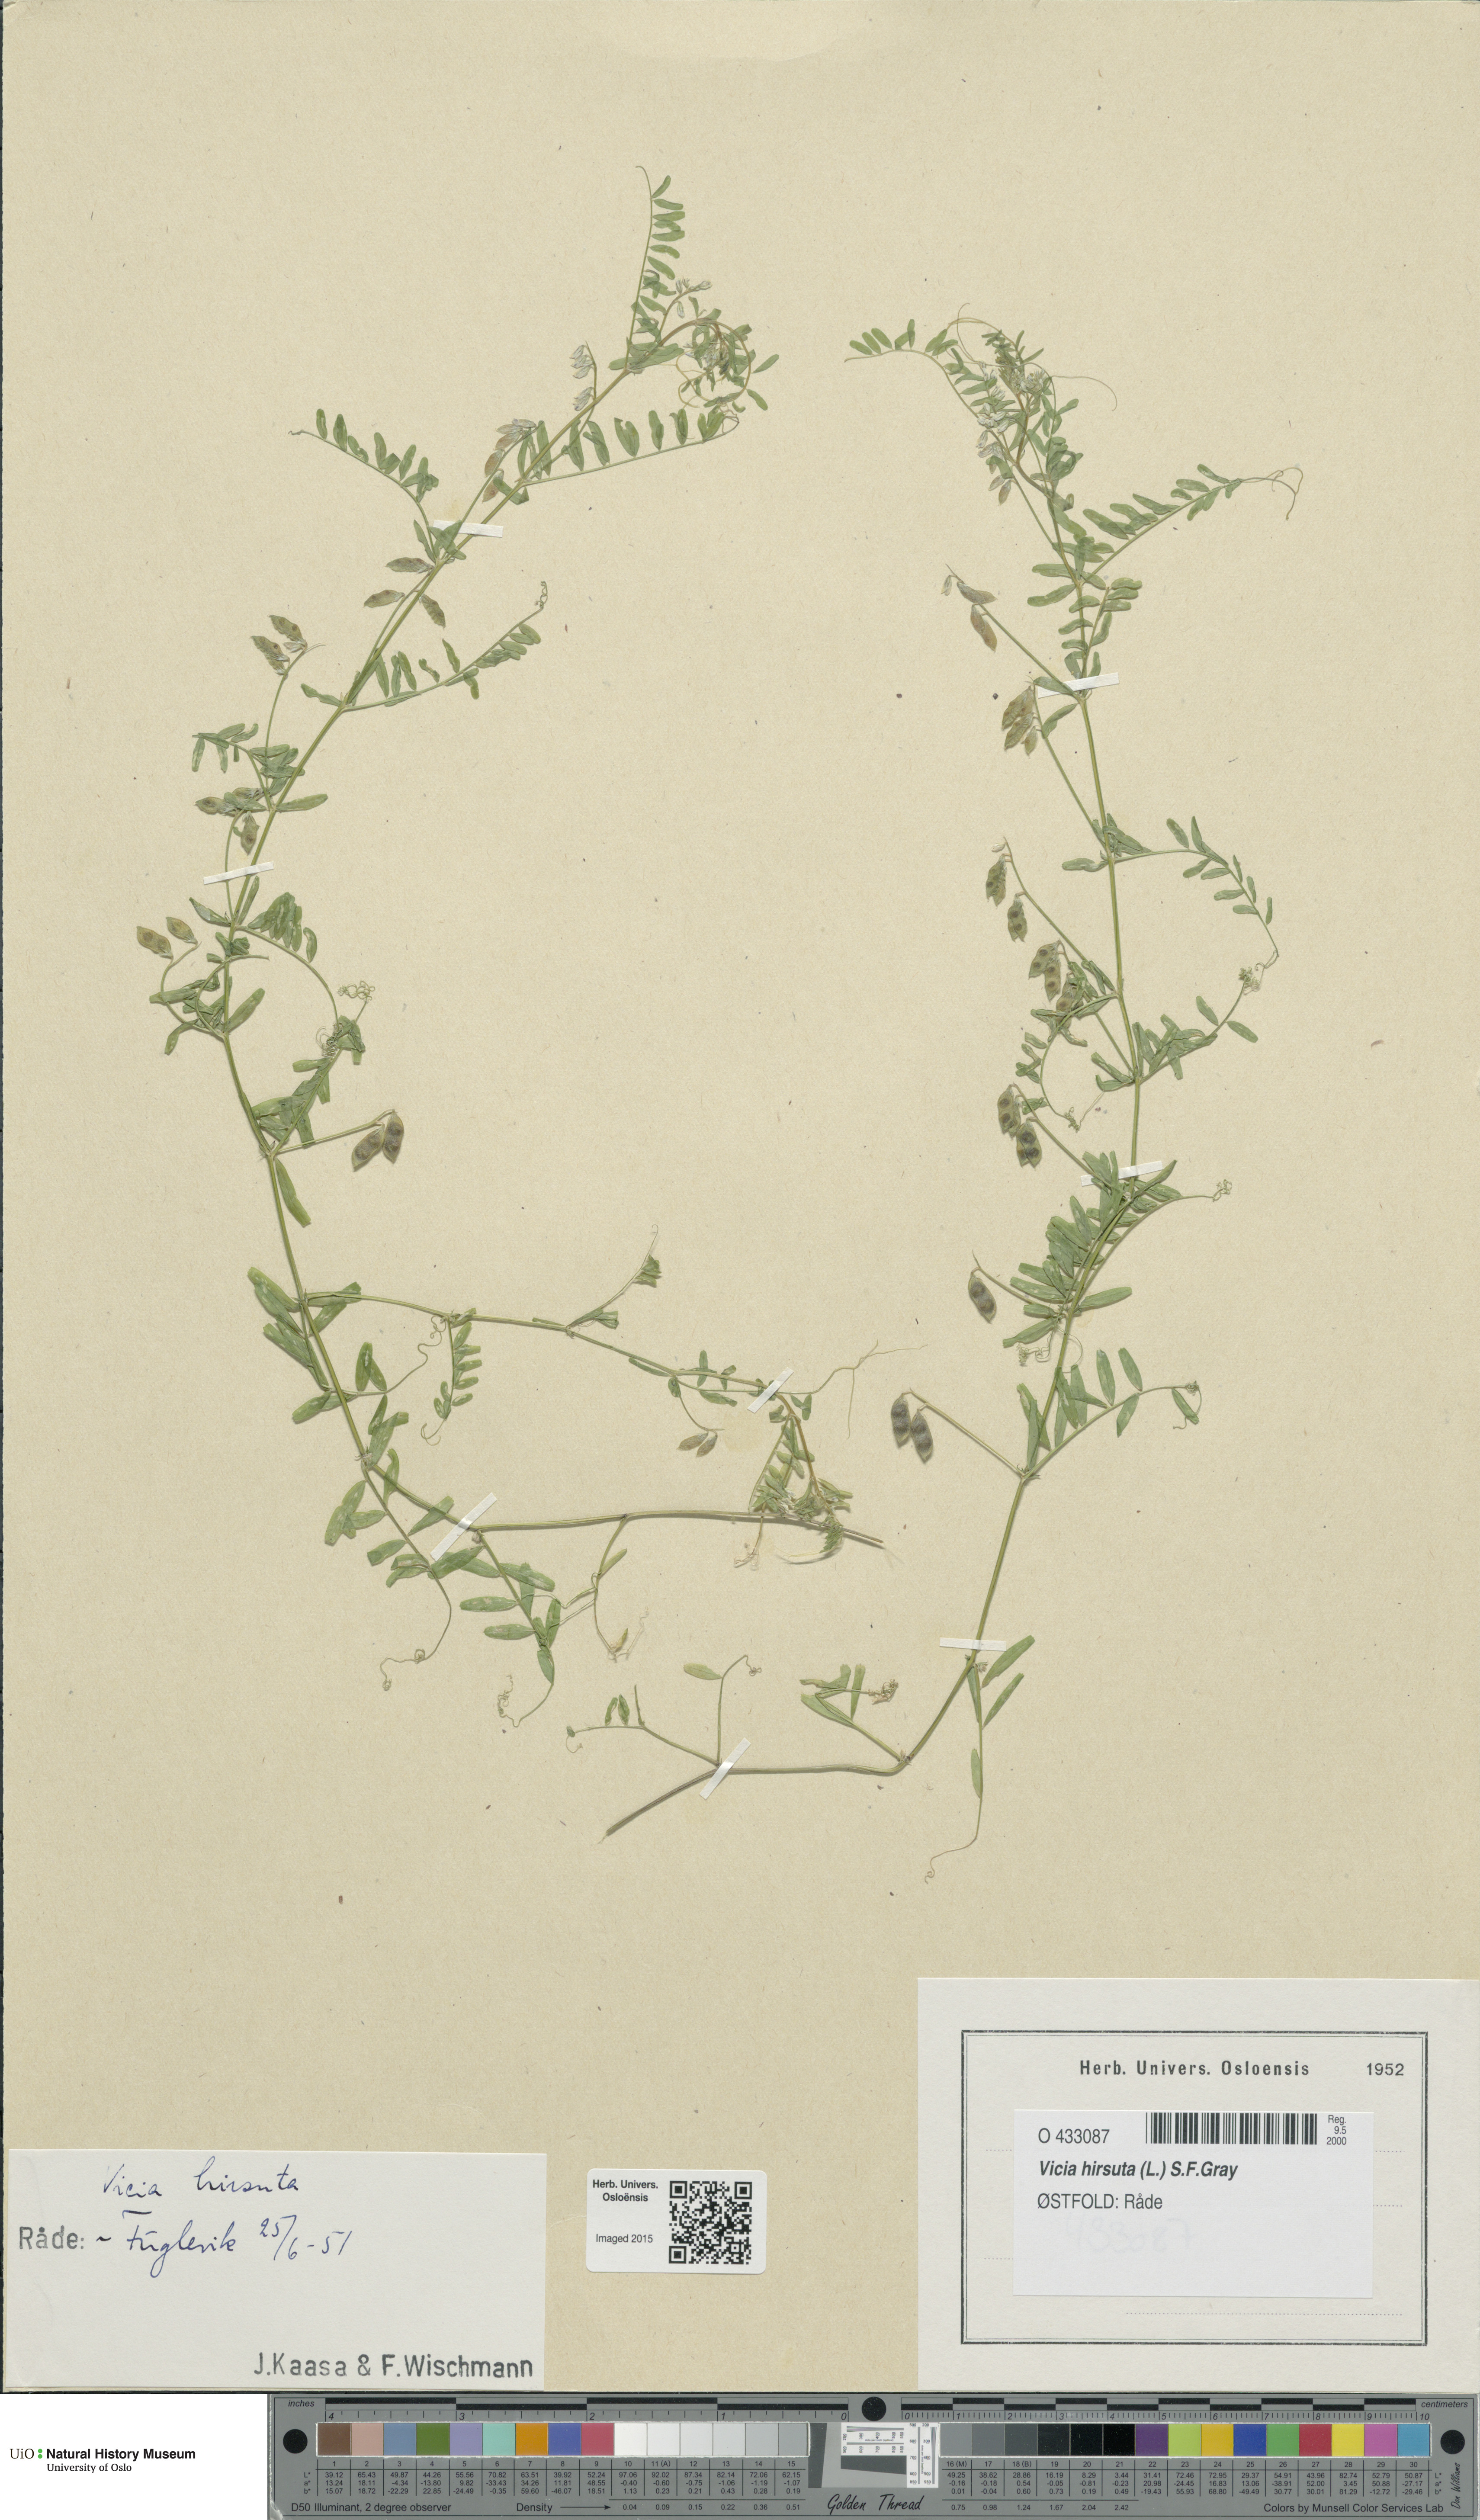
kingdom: Plantae
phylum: Tracheophyta
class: Magnoliopsida
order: Fabales
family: Fabaceae
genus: Vicia
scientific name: Vicia hirsuta
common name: Tiny vetch
